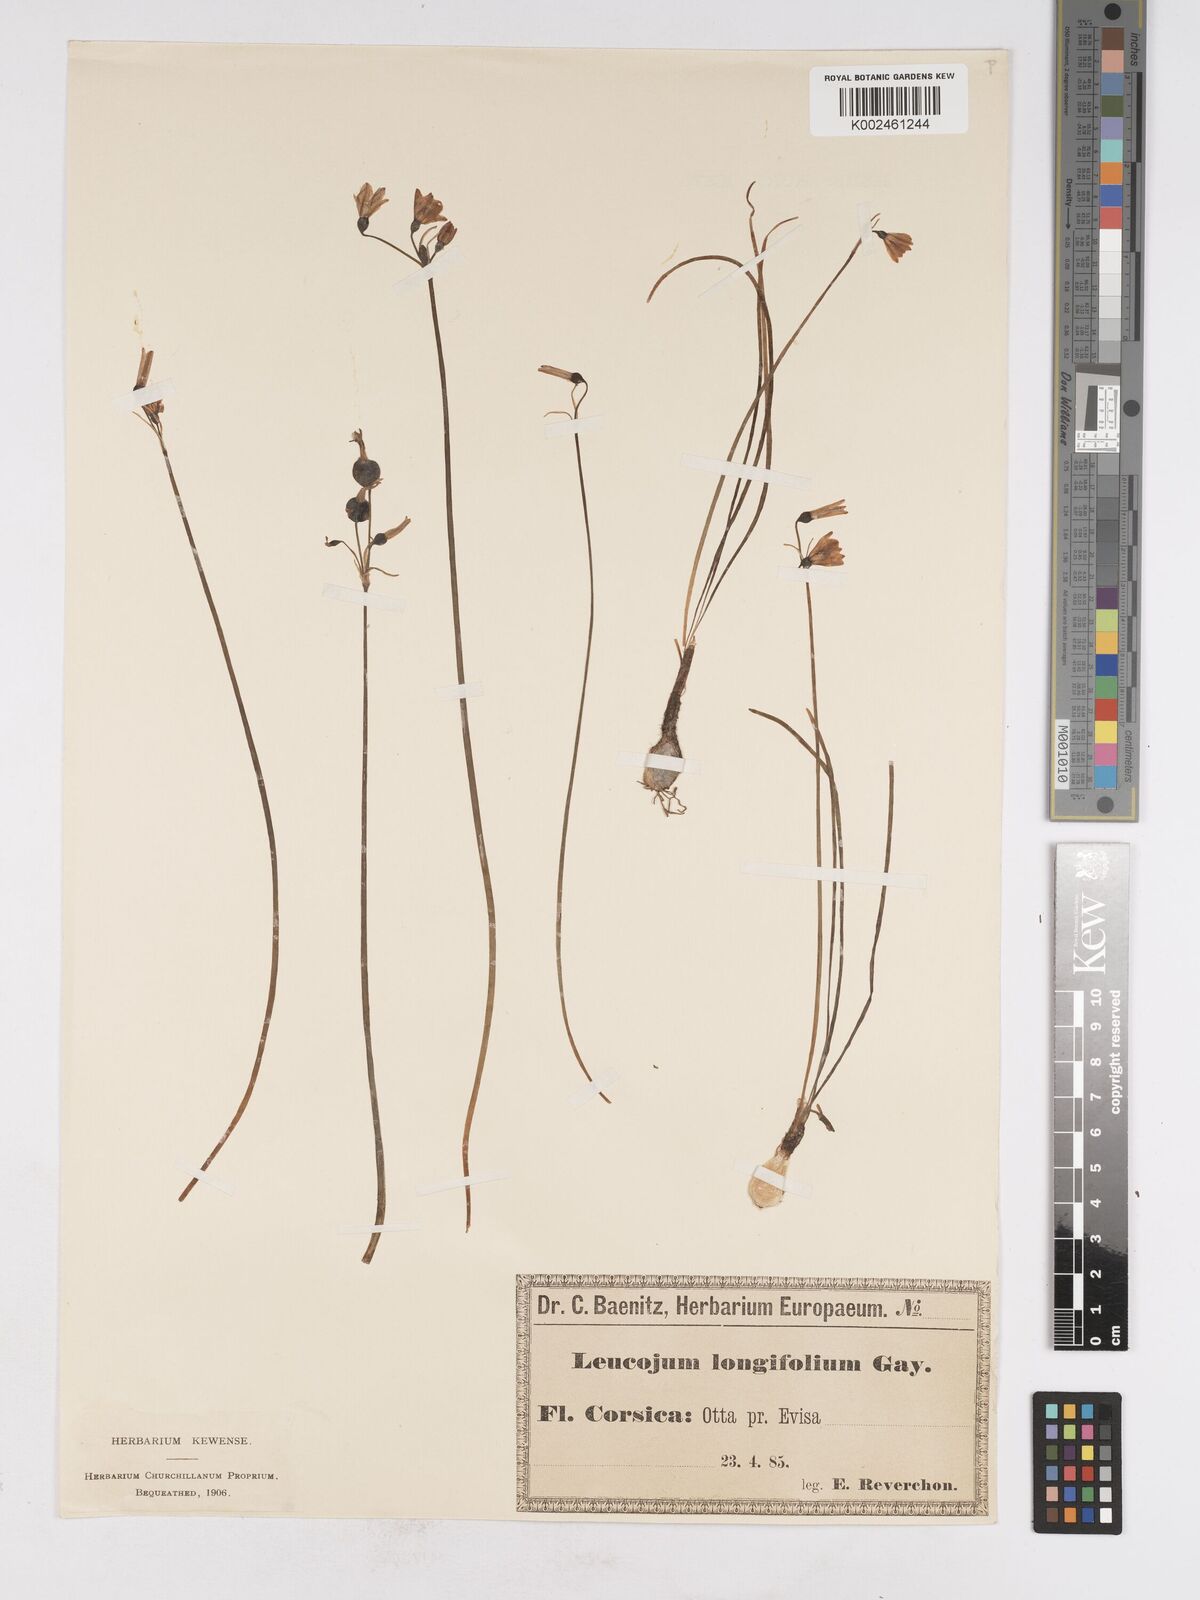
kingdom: Plantae
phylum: Tracheophyta
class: Liliopsida
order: Asparagales
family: Amaryllidaceae
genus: Acis
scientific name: Acis longifolia
